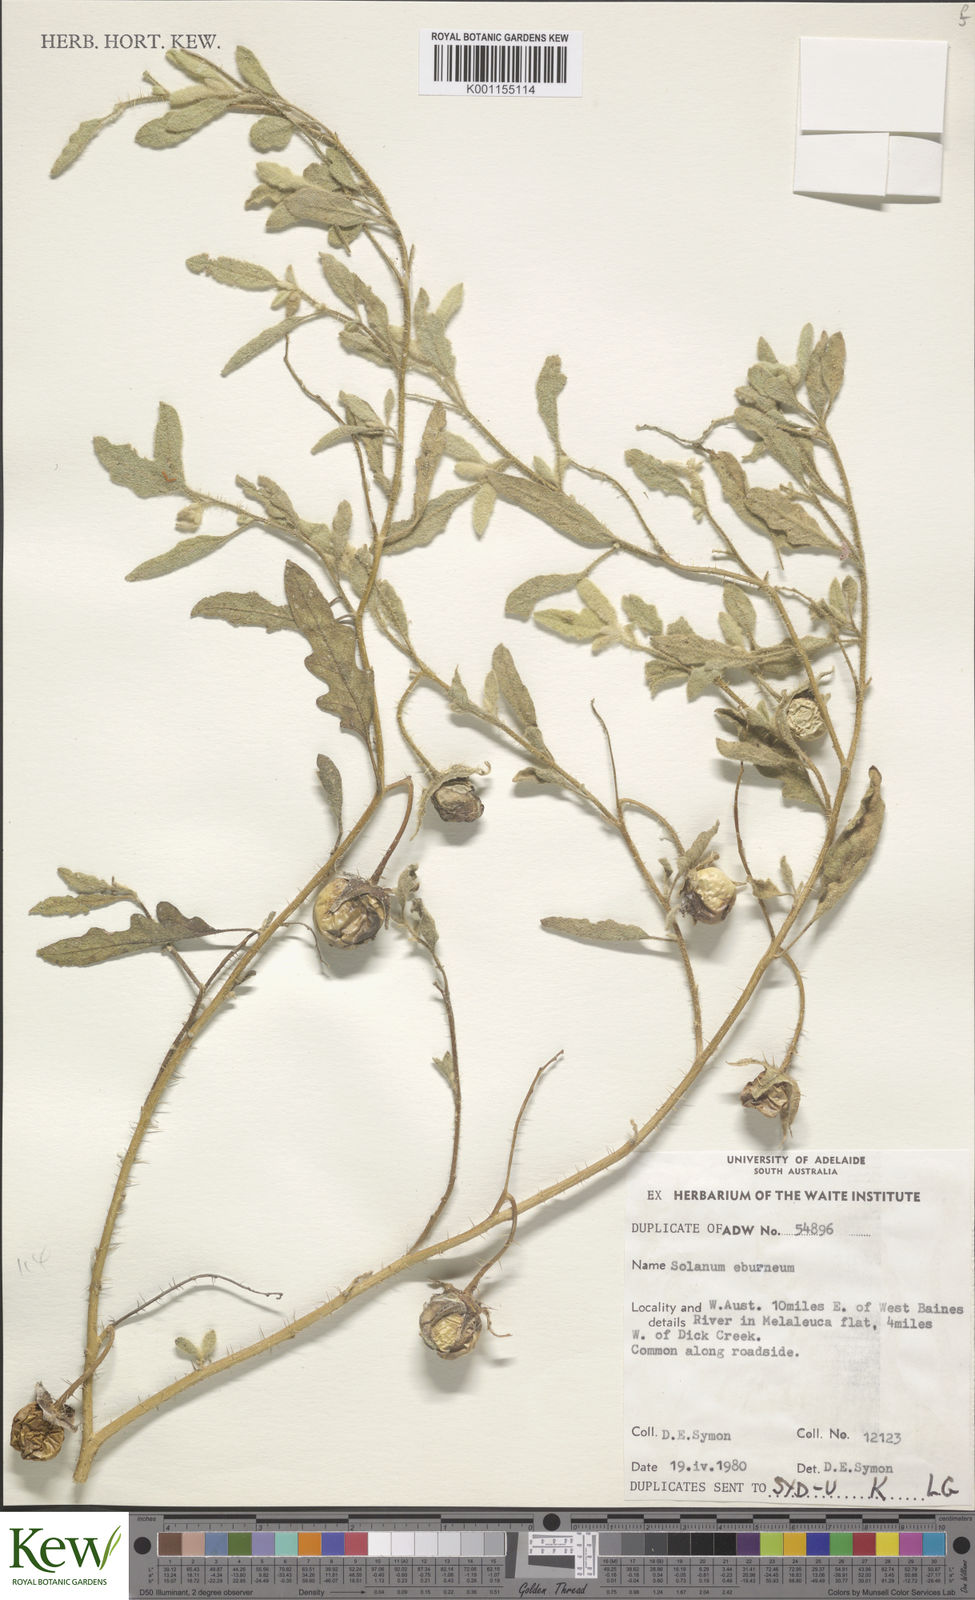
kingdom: Plantae
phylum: Tracheophyta
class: Magnoliopsida
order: Solanales
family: Solanaceae
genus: Solanum
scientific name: Solanum eburneum
